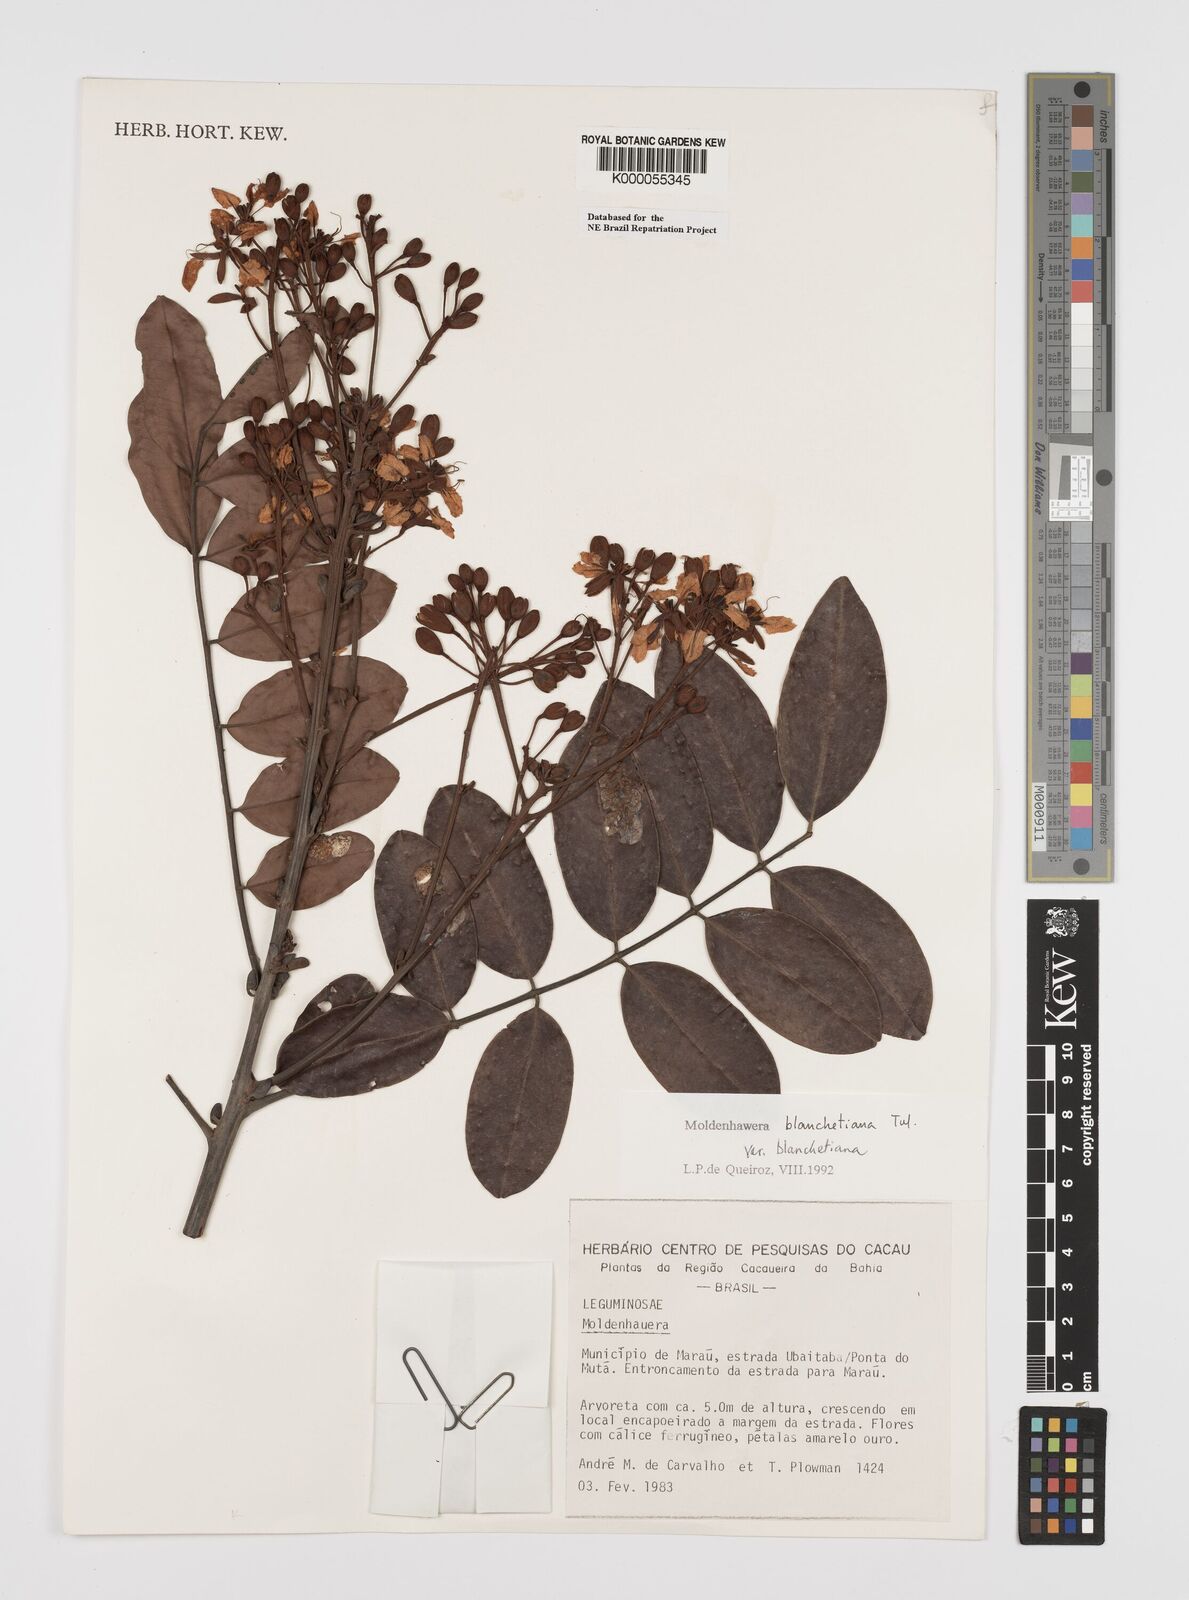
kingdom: Plantae
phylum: Tracheophyta
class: Magnoliopsida
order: Fabales
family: Fabaceae
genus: Moldenhawera
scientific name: Moldenhawera blanchetiana
